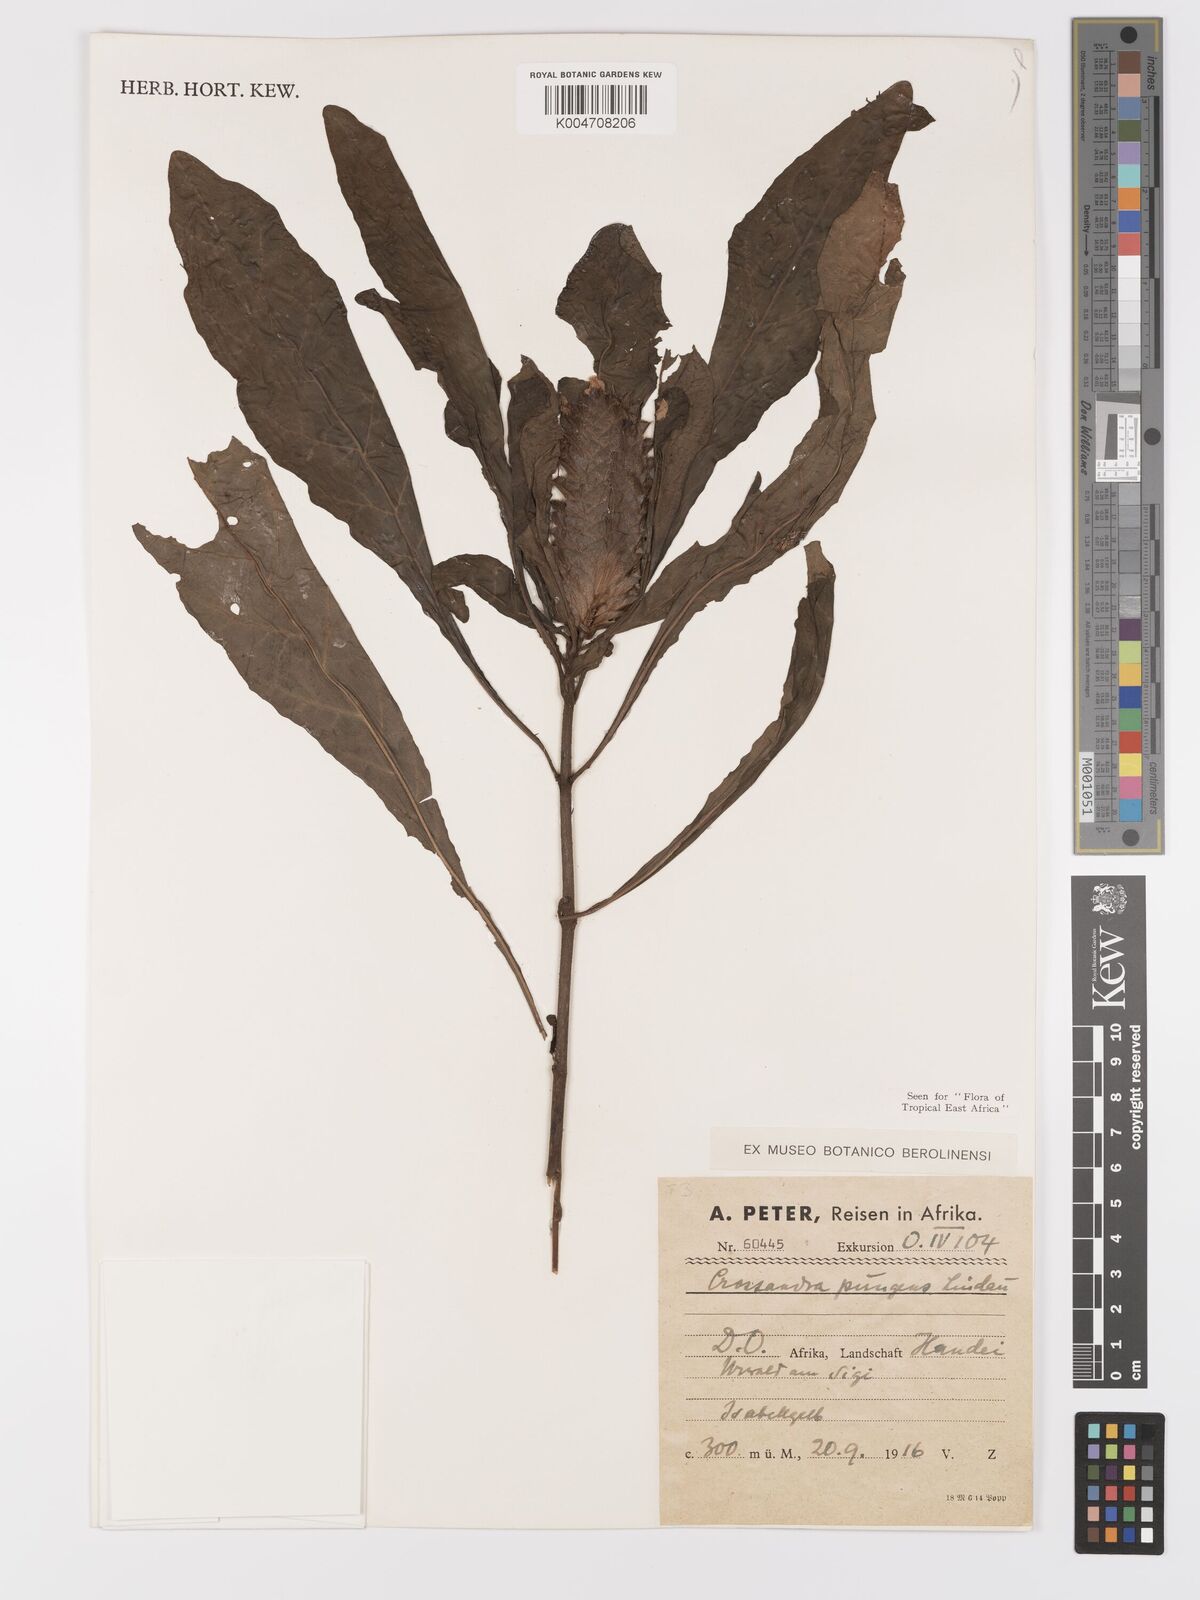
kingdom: Plantae
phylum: Tracheophyta
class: Magnoliopsida
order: Lamiales
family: Acanthaceae
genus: Crossandra
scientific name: Crossandra pungens
